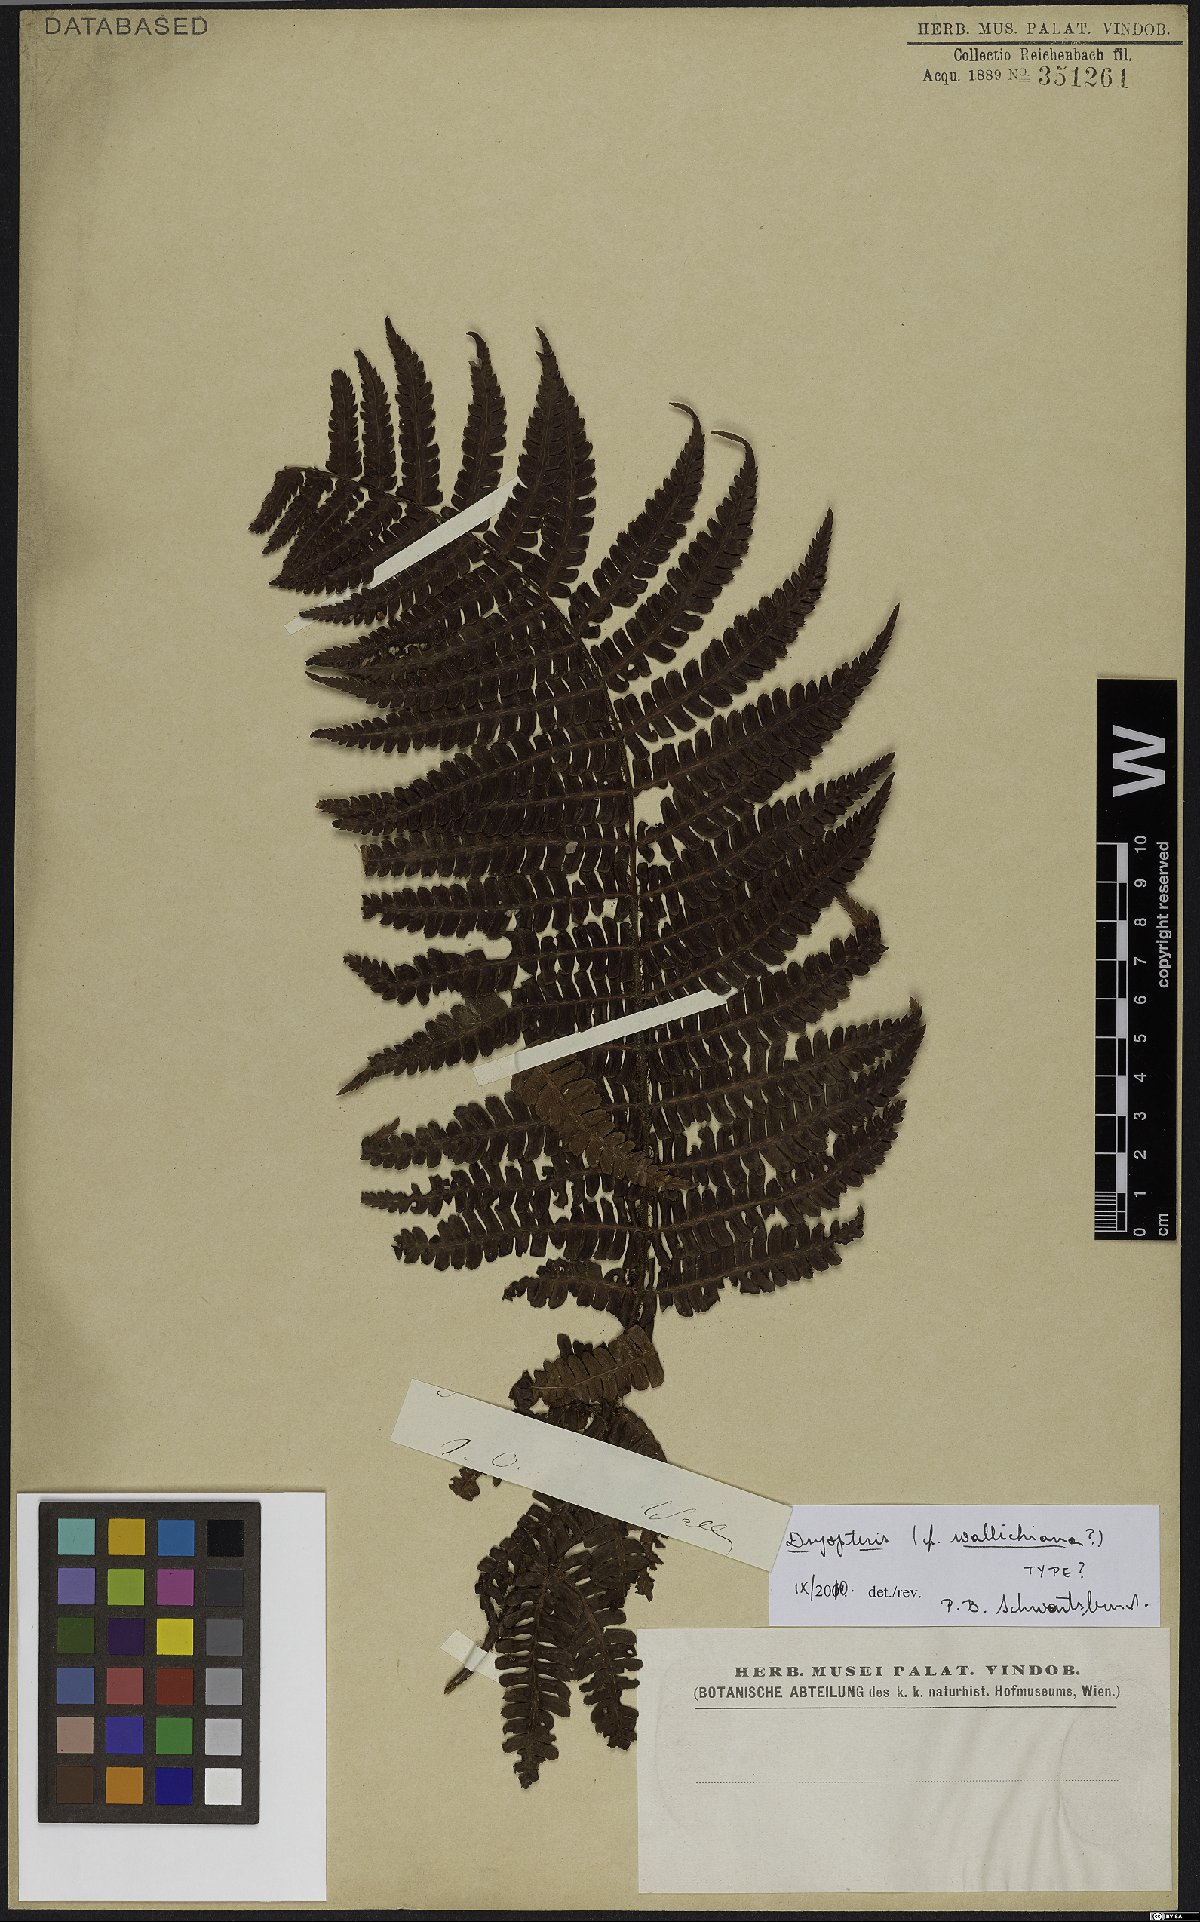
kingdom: Plantae
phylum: Tracheophyta
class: Polypodiopsida
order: Polypodiales
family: Dryopteridaceae
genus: Dryopteris
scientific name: Dryopteris wallichiana
